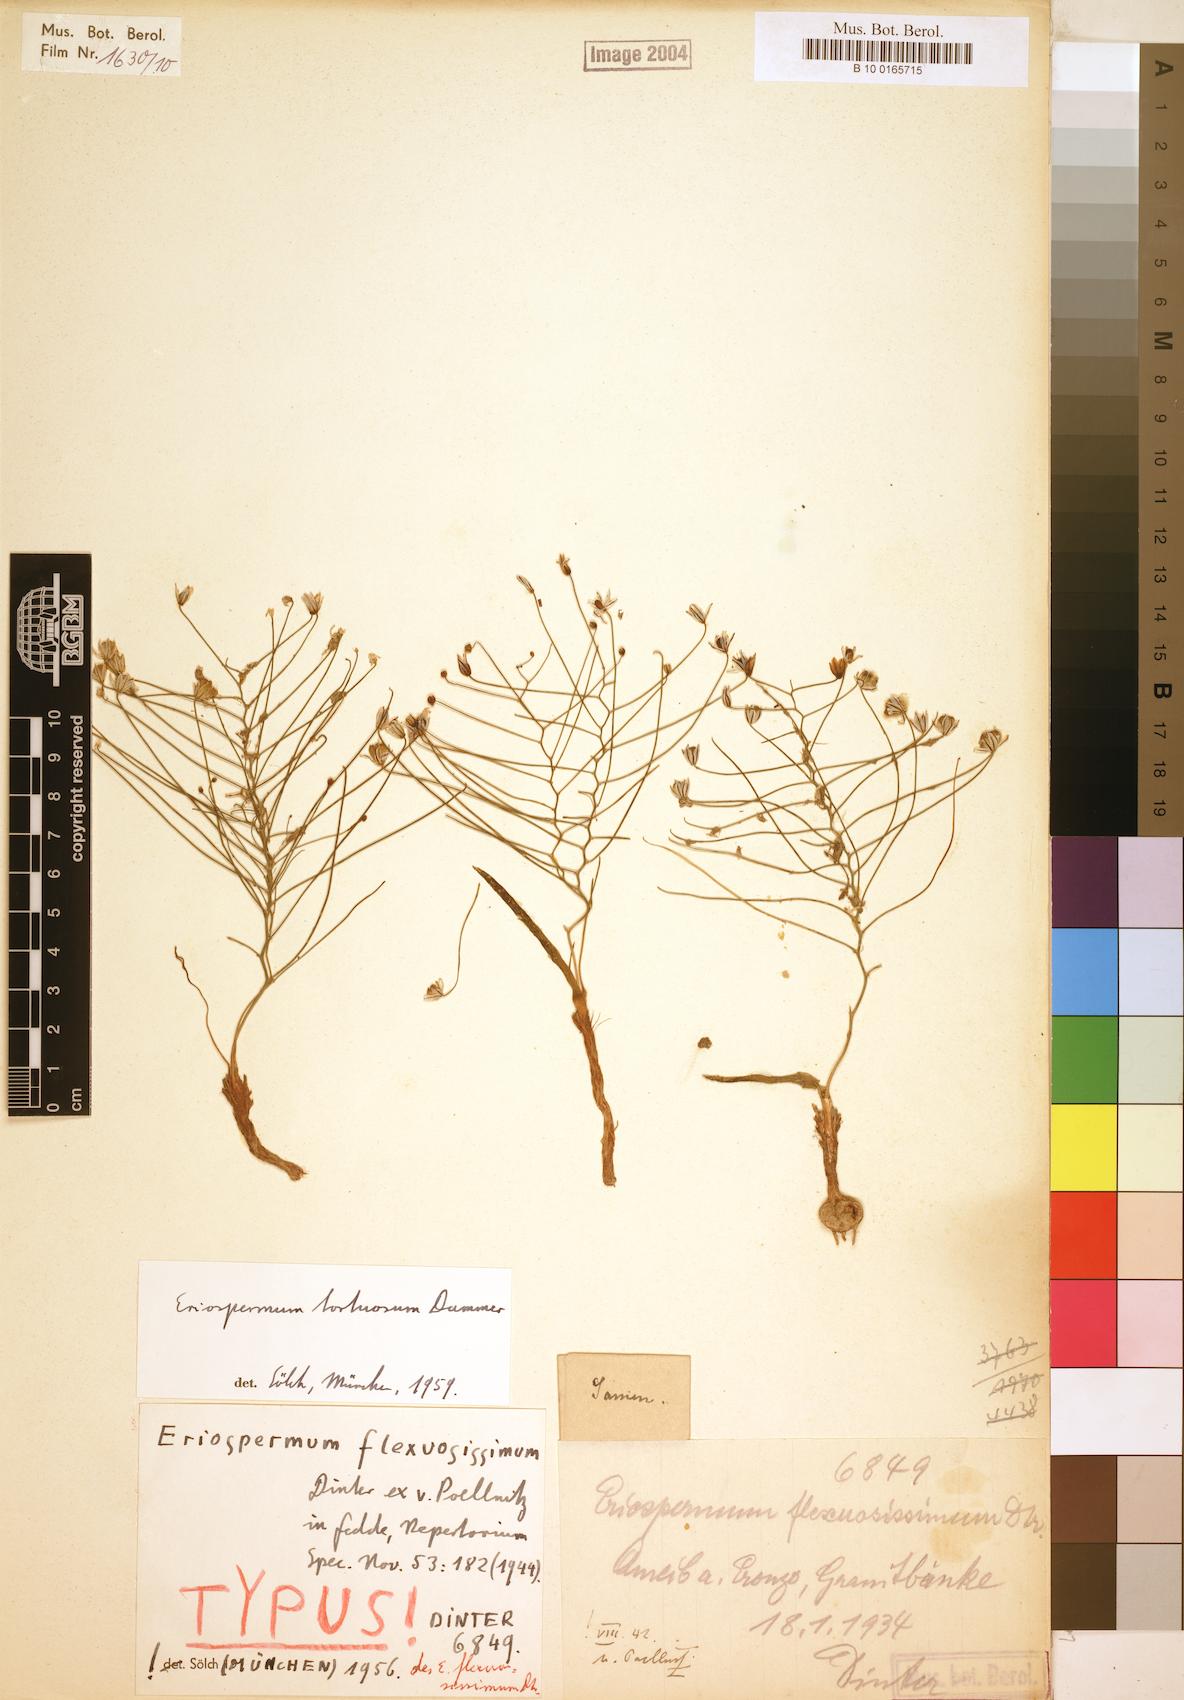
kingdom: Plantae
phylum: Tracheophyta
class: Liliopsida
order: Asparagales
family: Asparagaceae
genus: Eriospermum
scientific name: Eriospermum bakerianum
